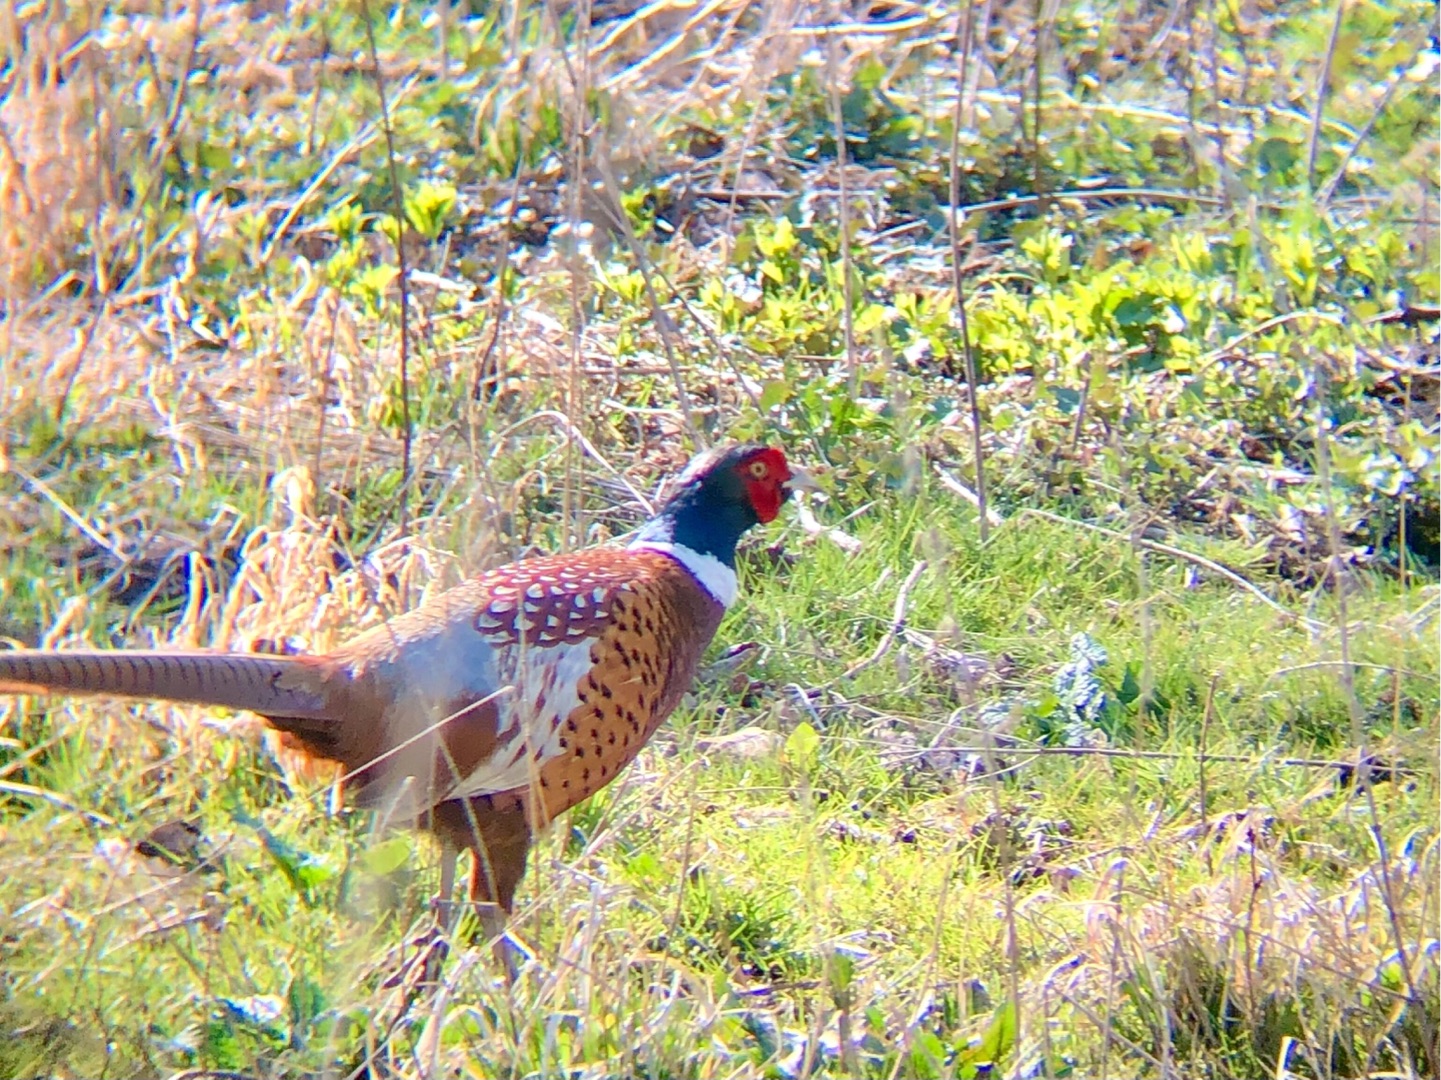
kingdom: Animalia
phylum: Chordata
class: Aves
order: Galliformes
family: Phasianidae
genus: Phasianus
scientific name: Phasianus colchicus
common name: Fasan
